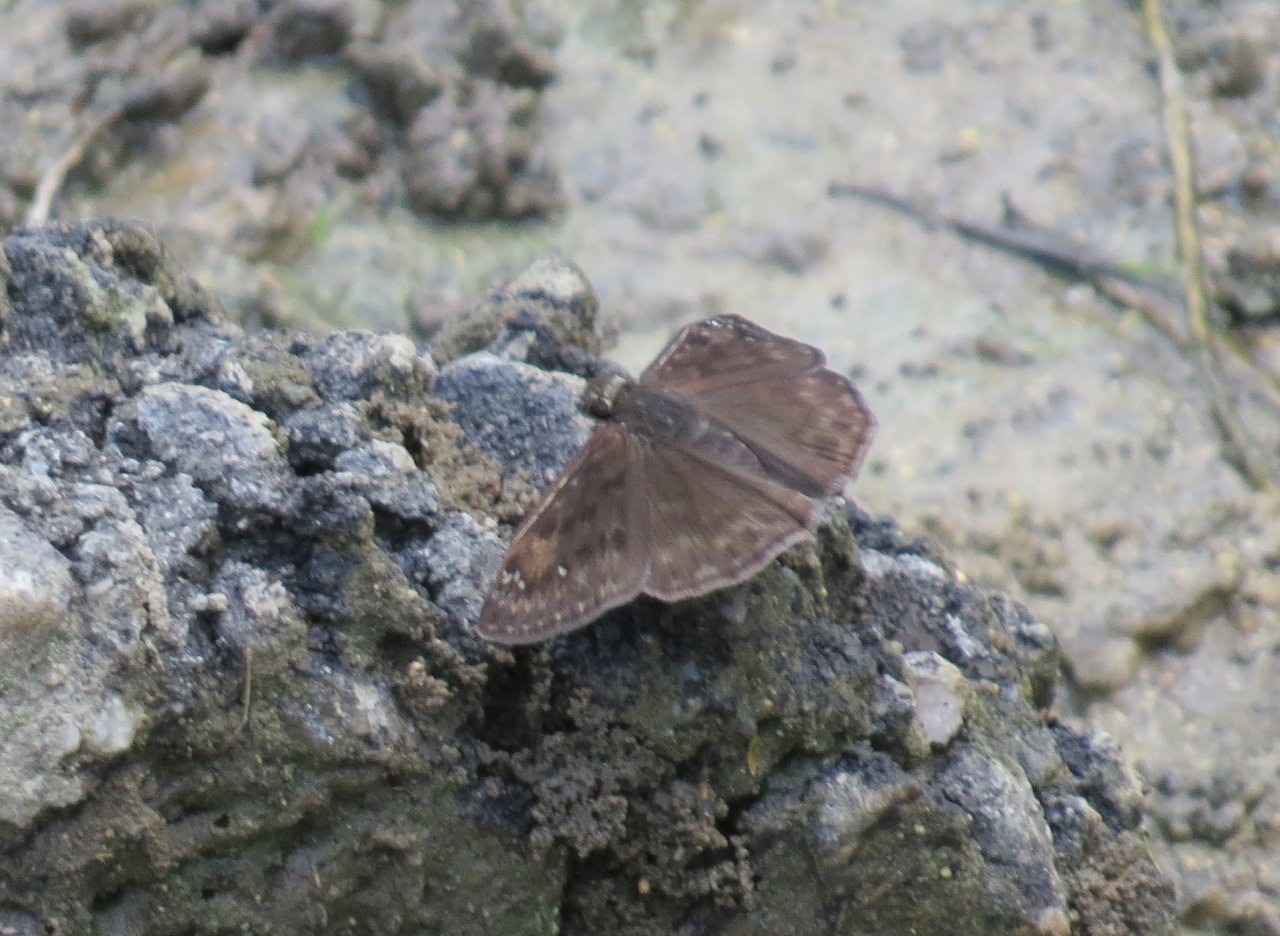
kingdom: Animalia
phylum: Arthropoda
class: Insecta
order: Lepidoptera
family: Hesperiidae
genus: Erynnis
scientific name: Erynnis zarucco
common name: Zarucco Duskywing
